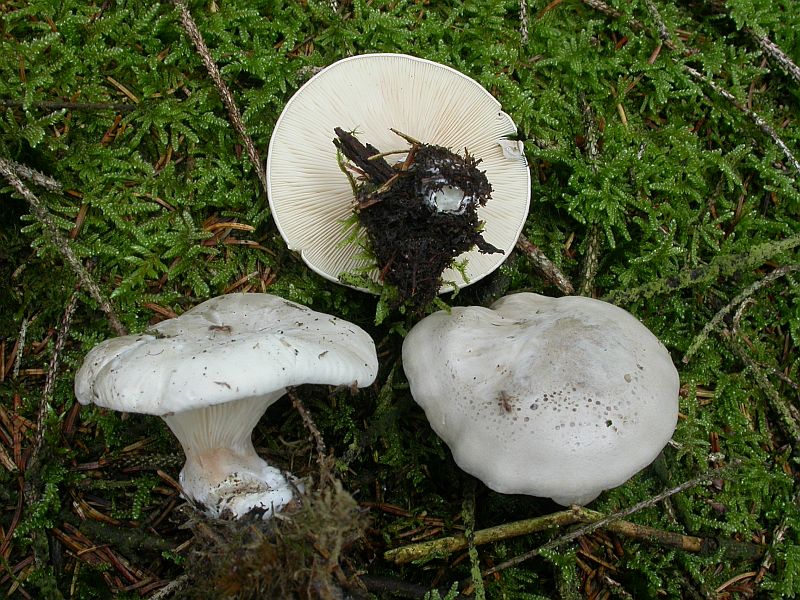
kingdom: Fungi
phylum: Basidiomycota
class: Agaricomycetes
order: Agaricales
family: Entolomataceae
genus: Clitopilus
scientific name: Clitopilus paxilloides
